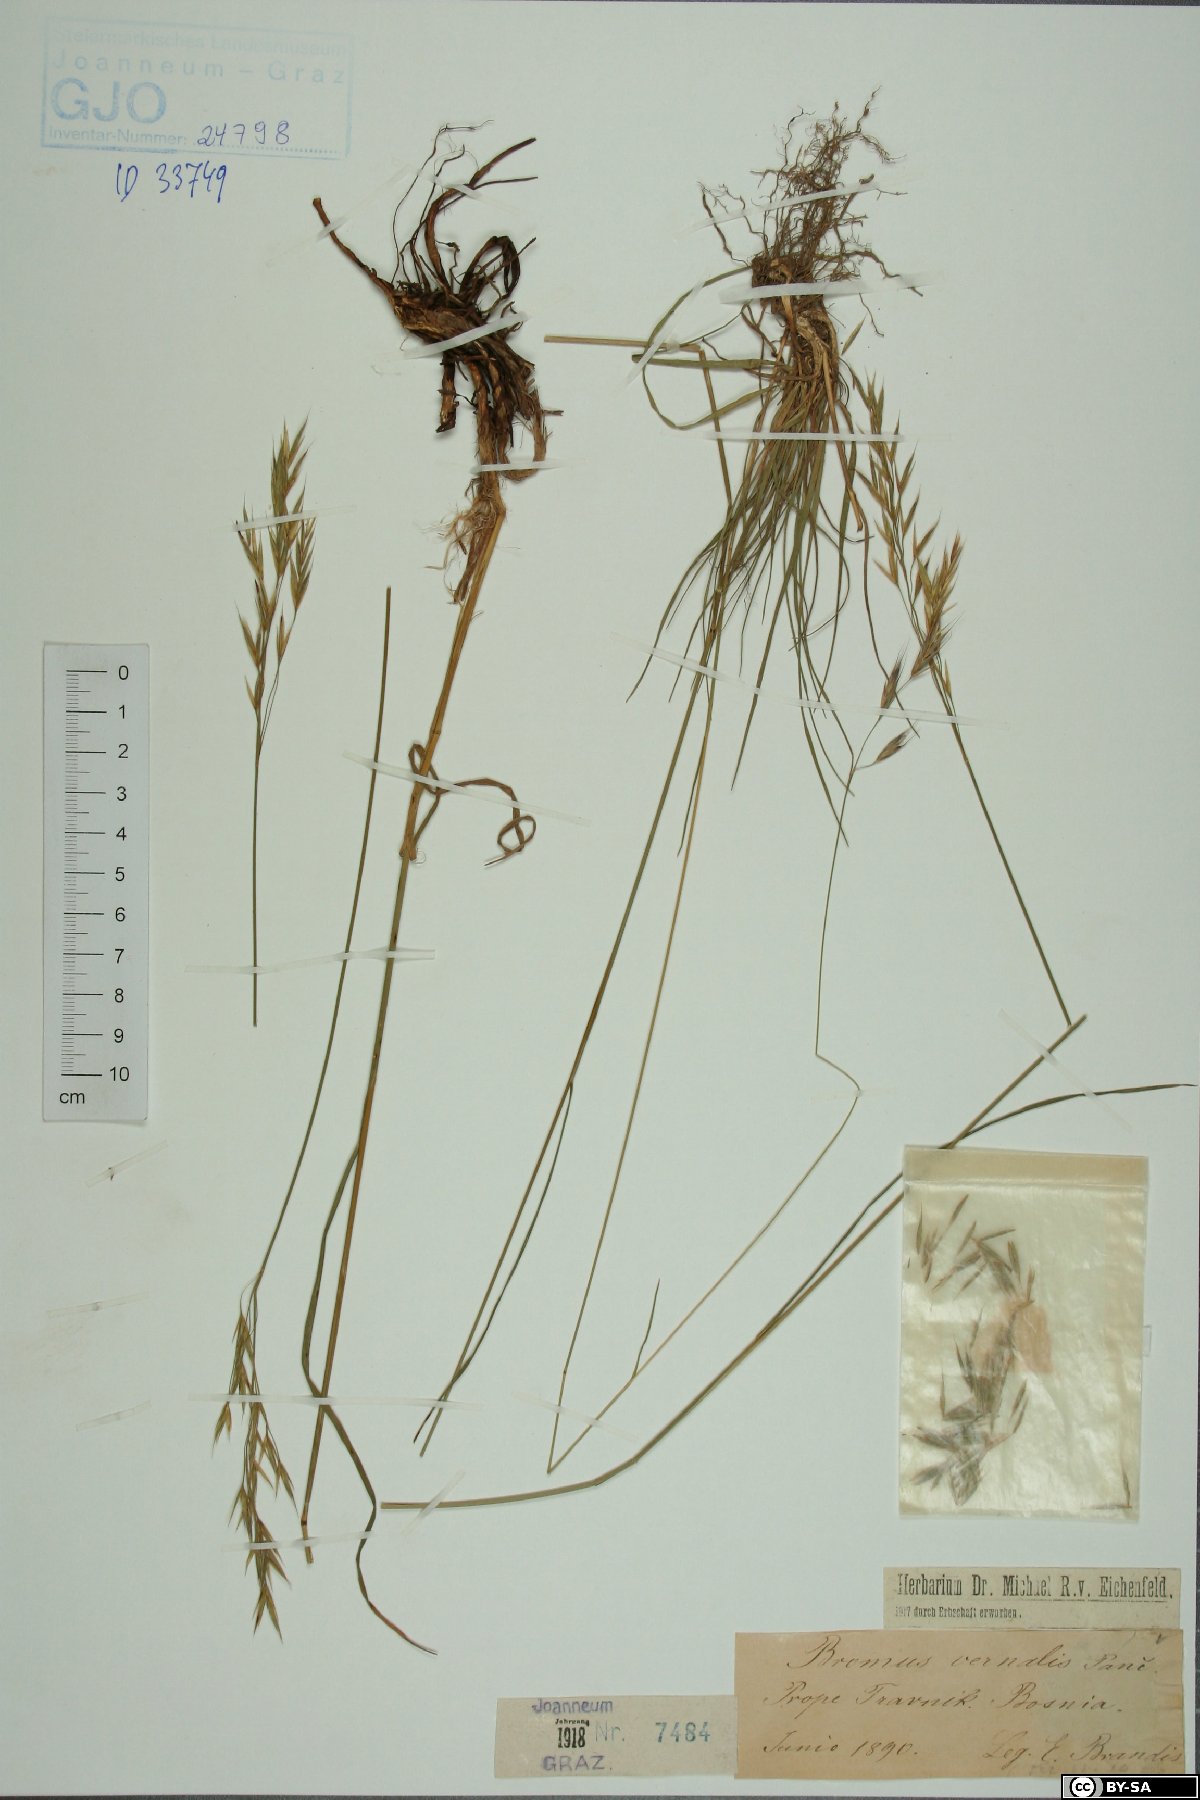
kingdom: Plantae
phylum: Tracheophyta
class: Liliopsida
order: Poales
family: Poaceae
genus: Bromus
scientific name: Bromus pannonicus
